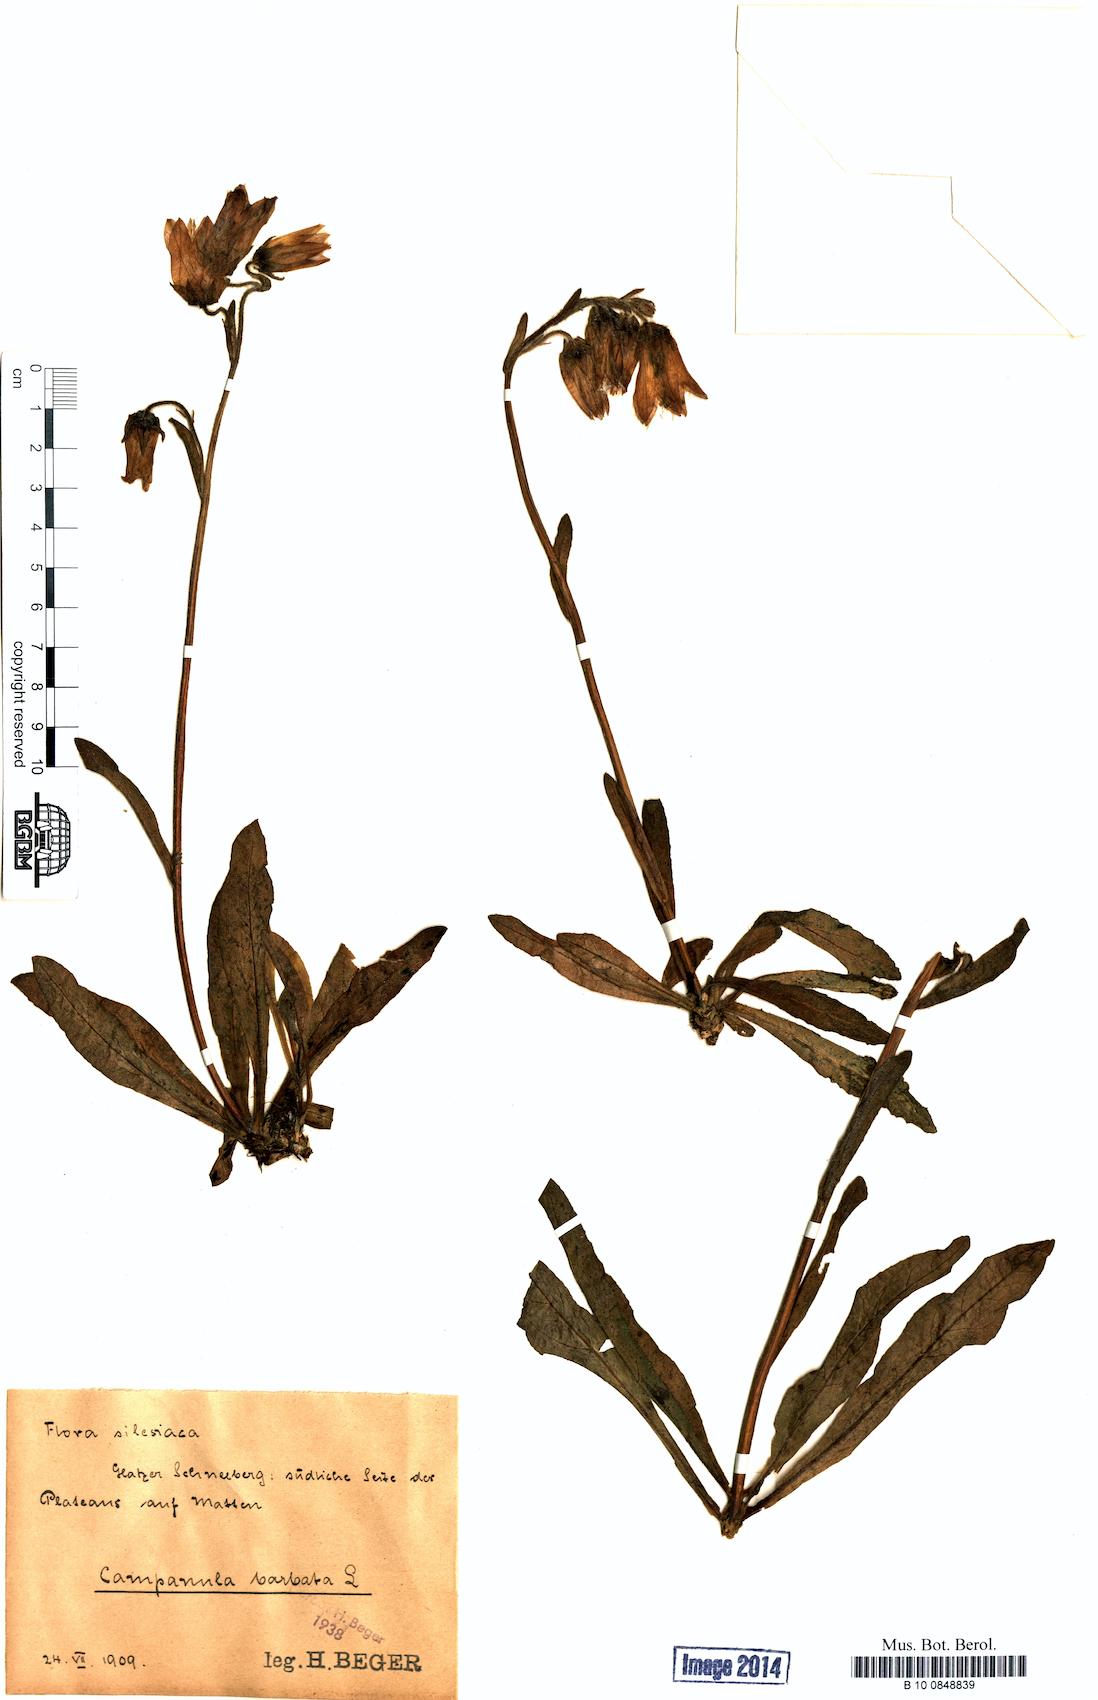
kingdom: Plantae
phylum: Tracheophyta
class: Magnoliopsida
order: Asterales
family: Campanulaceae
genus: Campanula
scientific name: Campanula barbata
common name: Bearded bellflower
